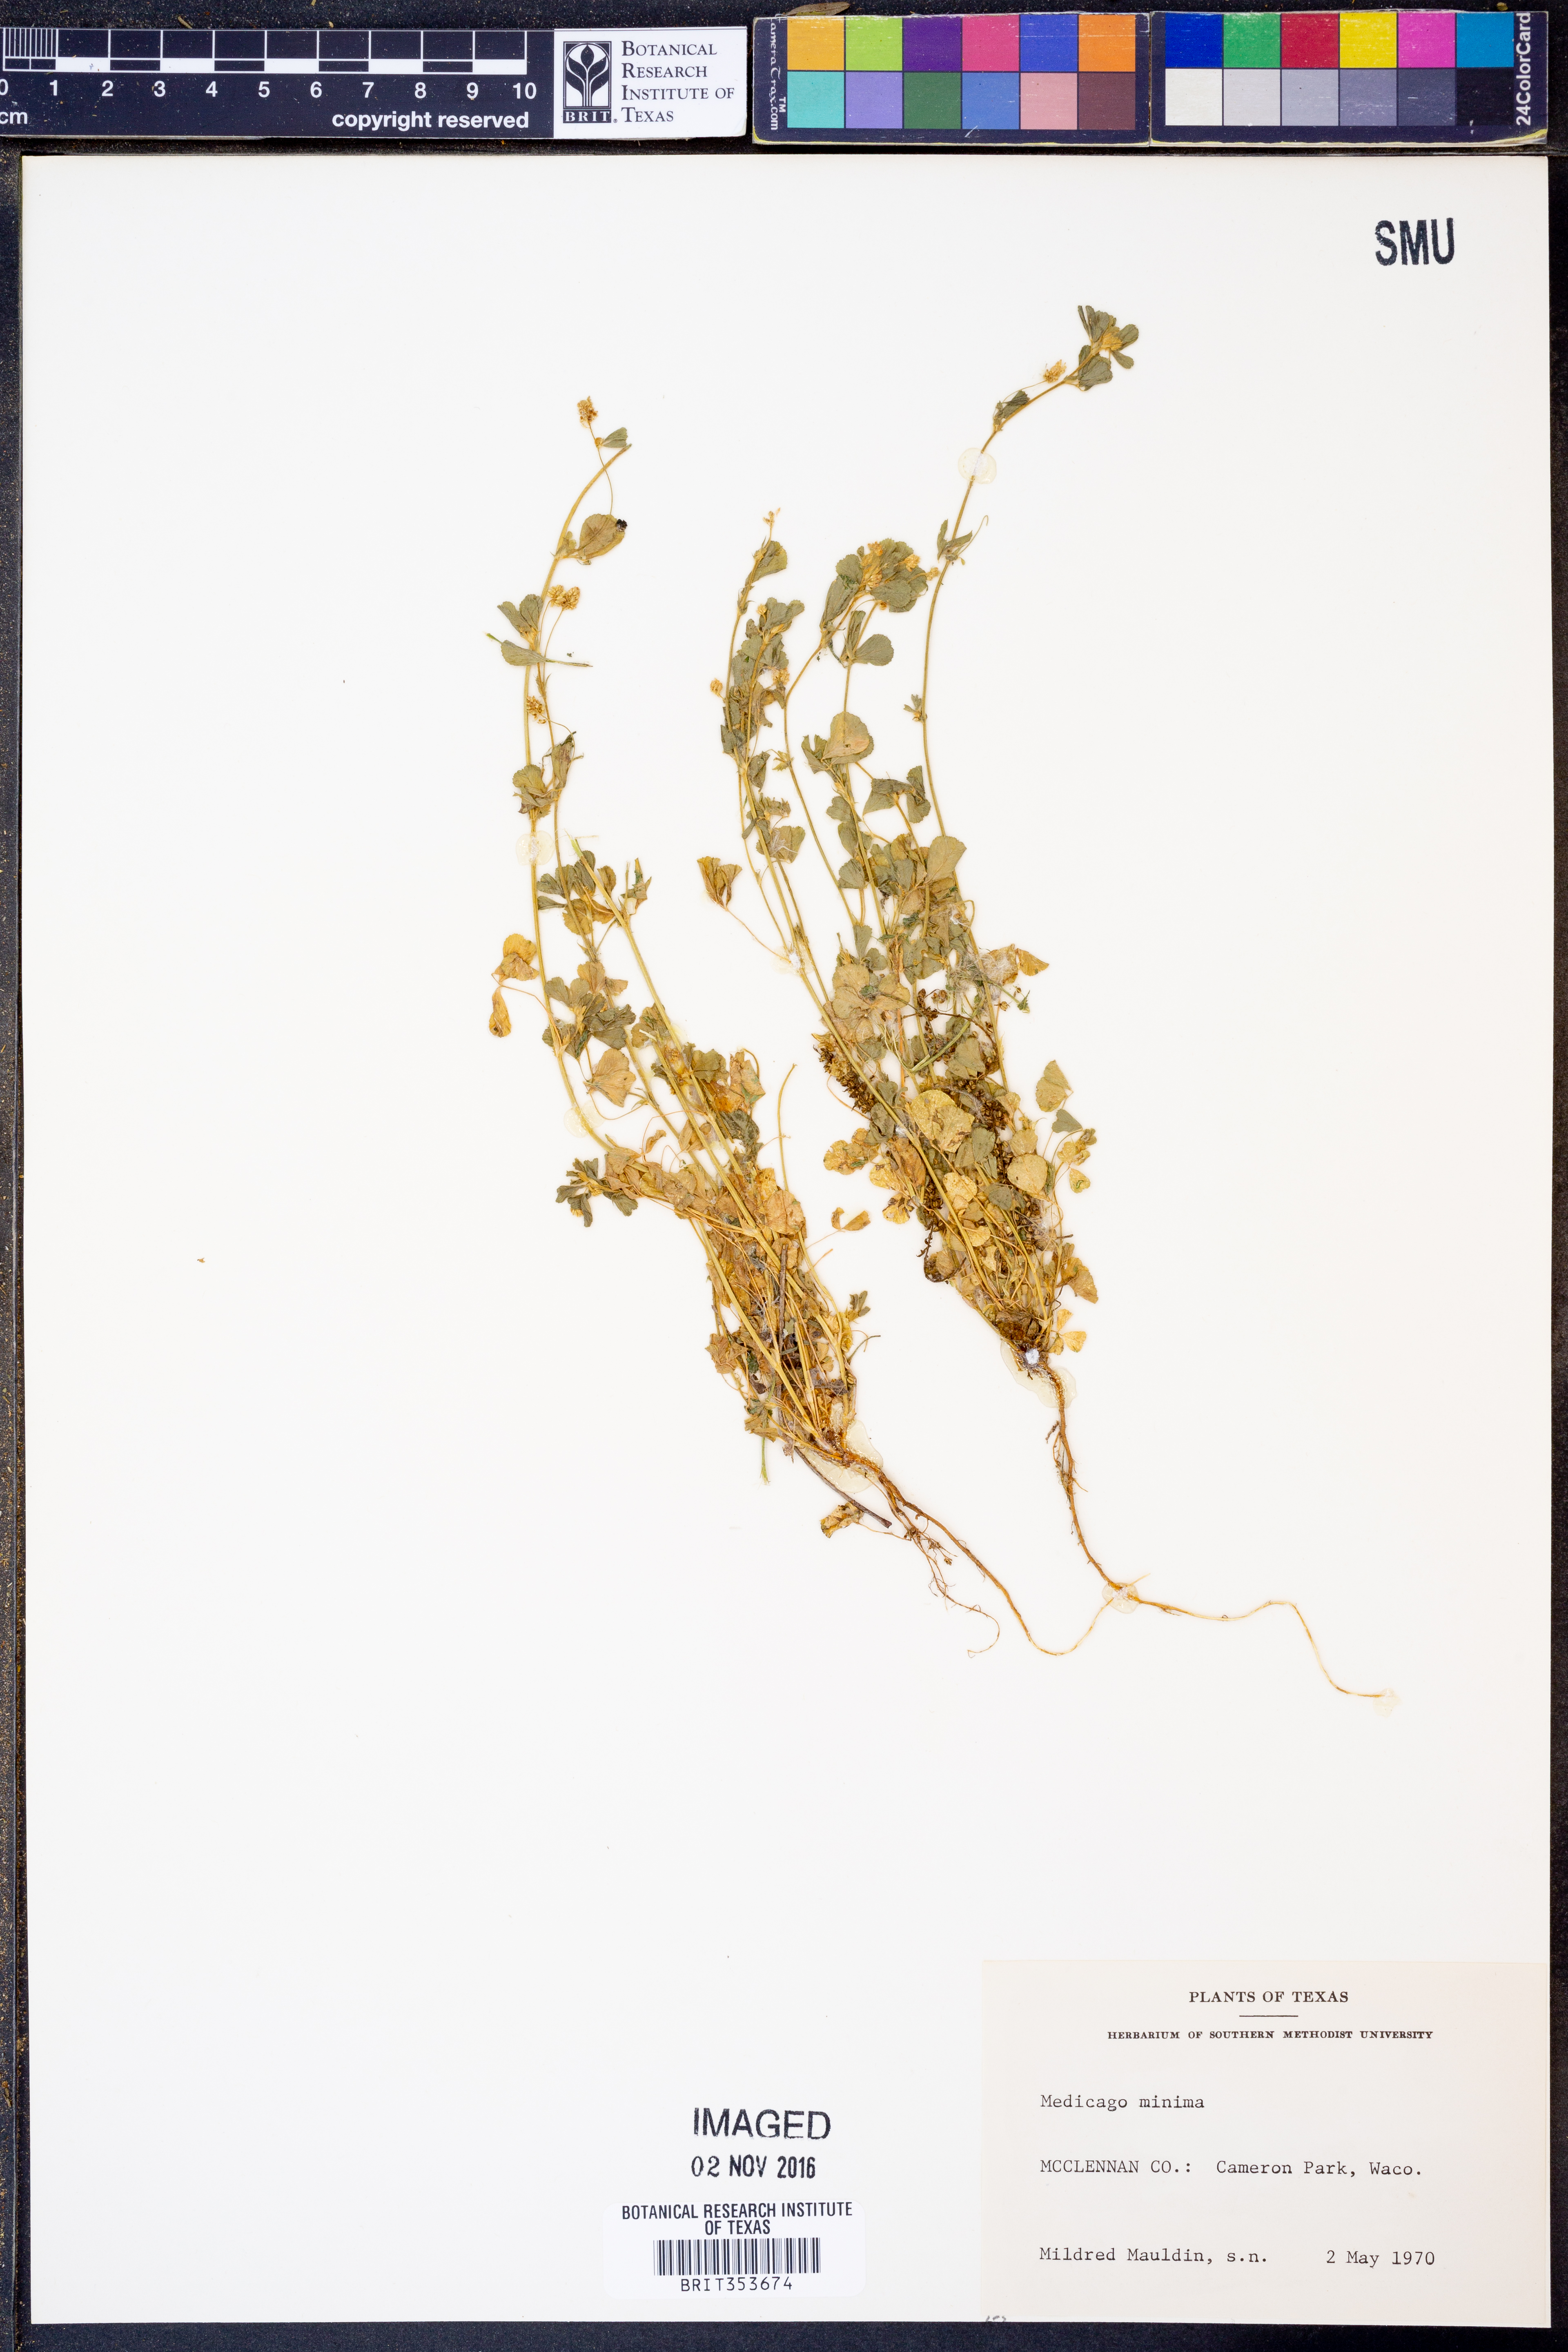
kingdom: Plantae
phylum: Tracheophyta
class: Magnoliopsida
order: Fabales
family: Fabaceae
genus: Medicago
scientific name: Medicago minima
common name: Little bur-clover
